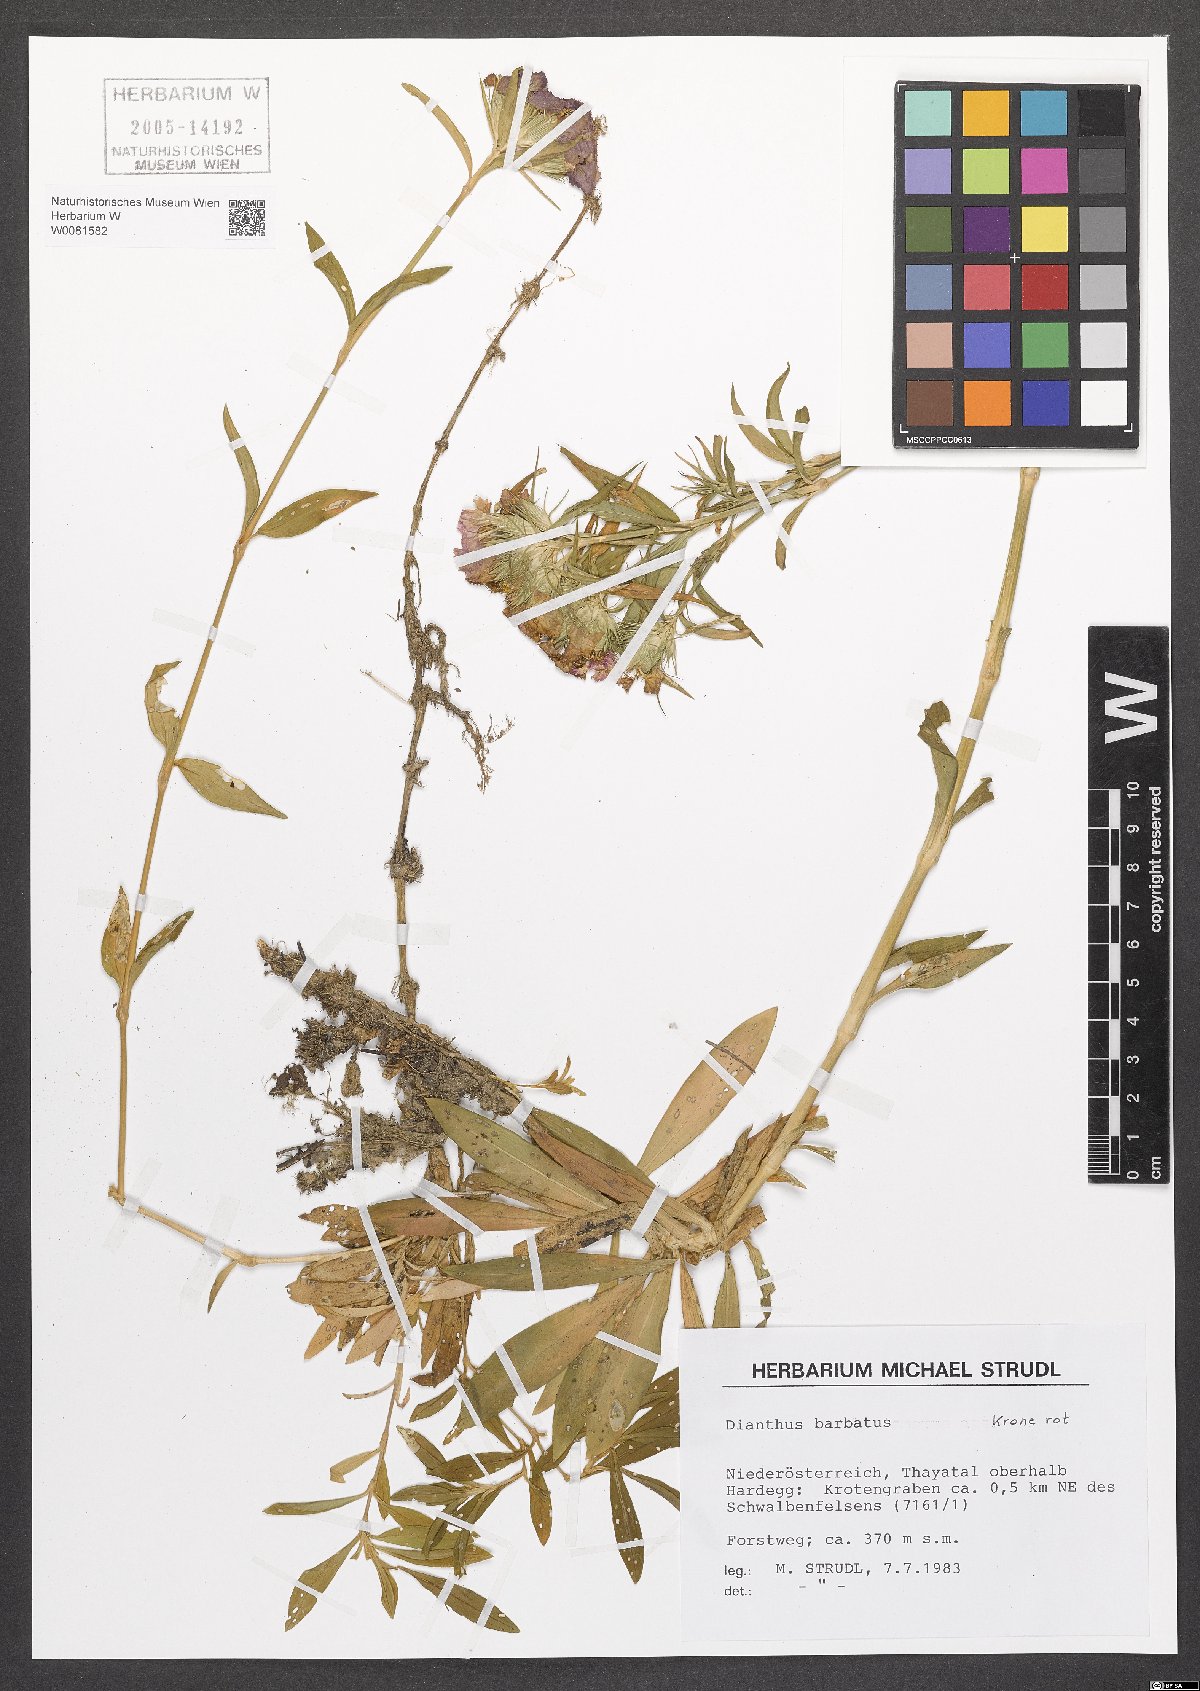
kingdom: Plantae
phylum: Tracheophyta
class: Magnoliopsida
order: Caryophyllales
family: Caryophyllaceae
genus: Dianthus
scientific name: Dianthus barbatus
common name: Sweet-william
